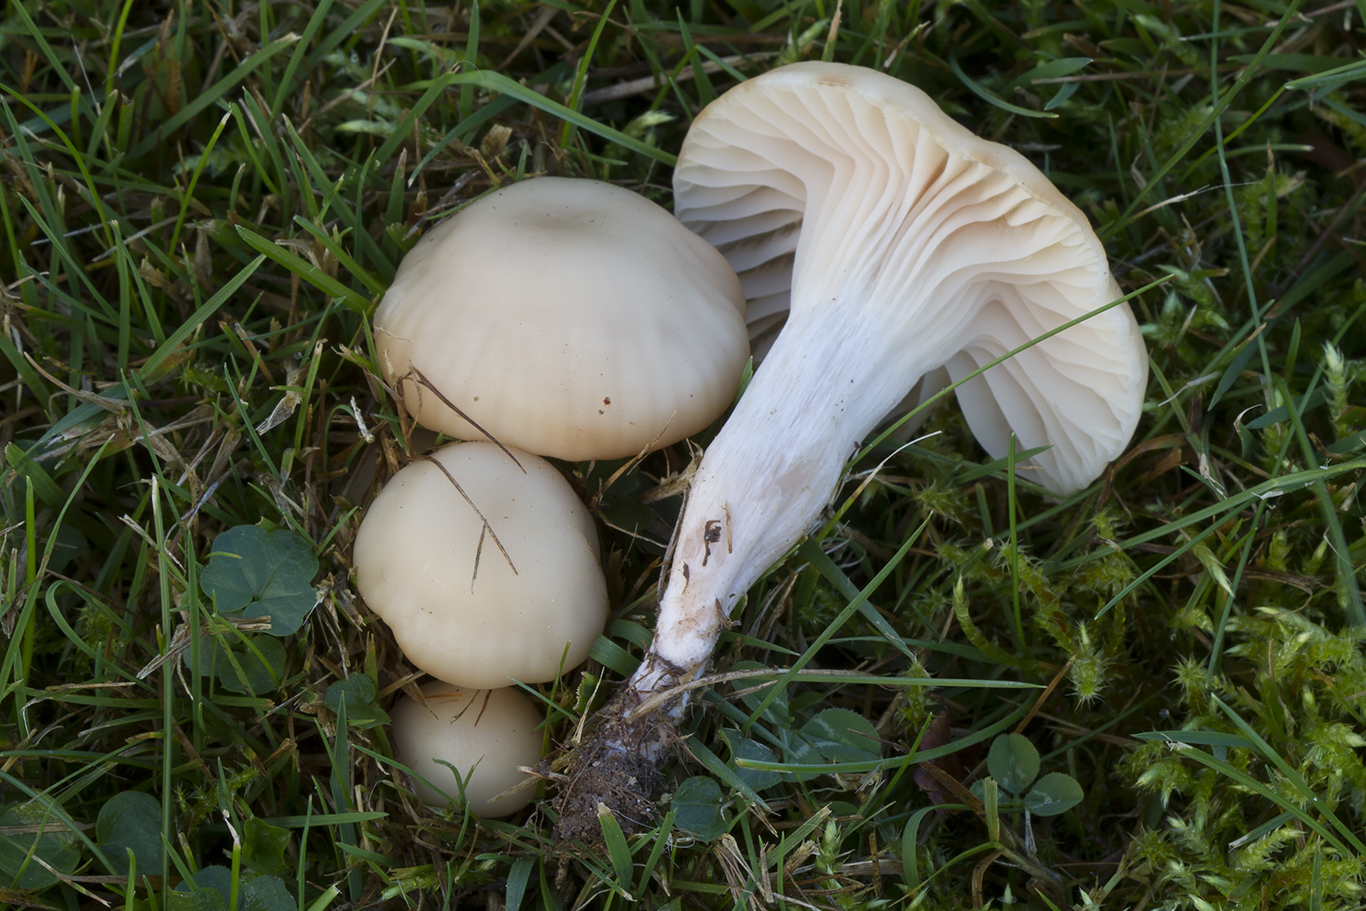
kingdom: Fungi
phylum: Basidiomycota
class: Agaricomycetes
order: Agaricales
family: Hygrophoraceae
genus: Cuphophyllus
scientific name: Cuphophyllus
